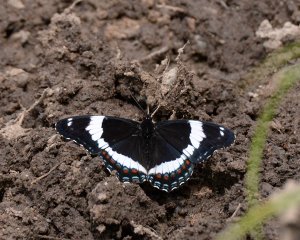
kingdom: Animalia
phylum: Arthropoda
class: Insecta
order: Lepidoptera
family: Nymphalidae
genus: Limenitis
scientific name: Limenitis arthemis
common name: Red-spotted Admiral
